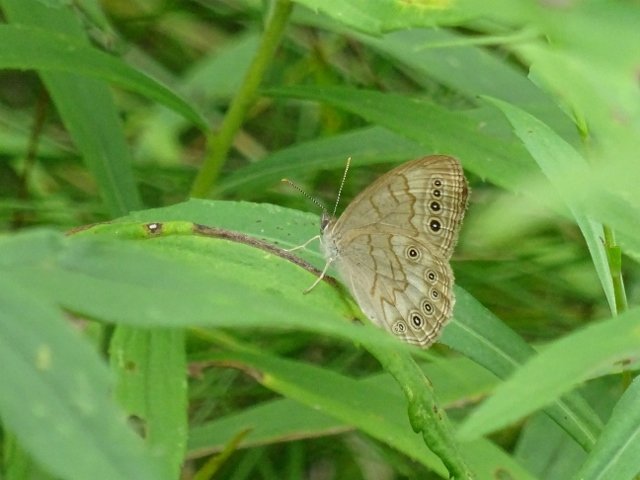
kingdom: Animalia
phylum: Arthropoda
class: Insecta
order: Lepidoptera
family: Nymphalidae
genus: Lethe
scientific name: Lethe eurydice
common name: Eyed Brown
